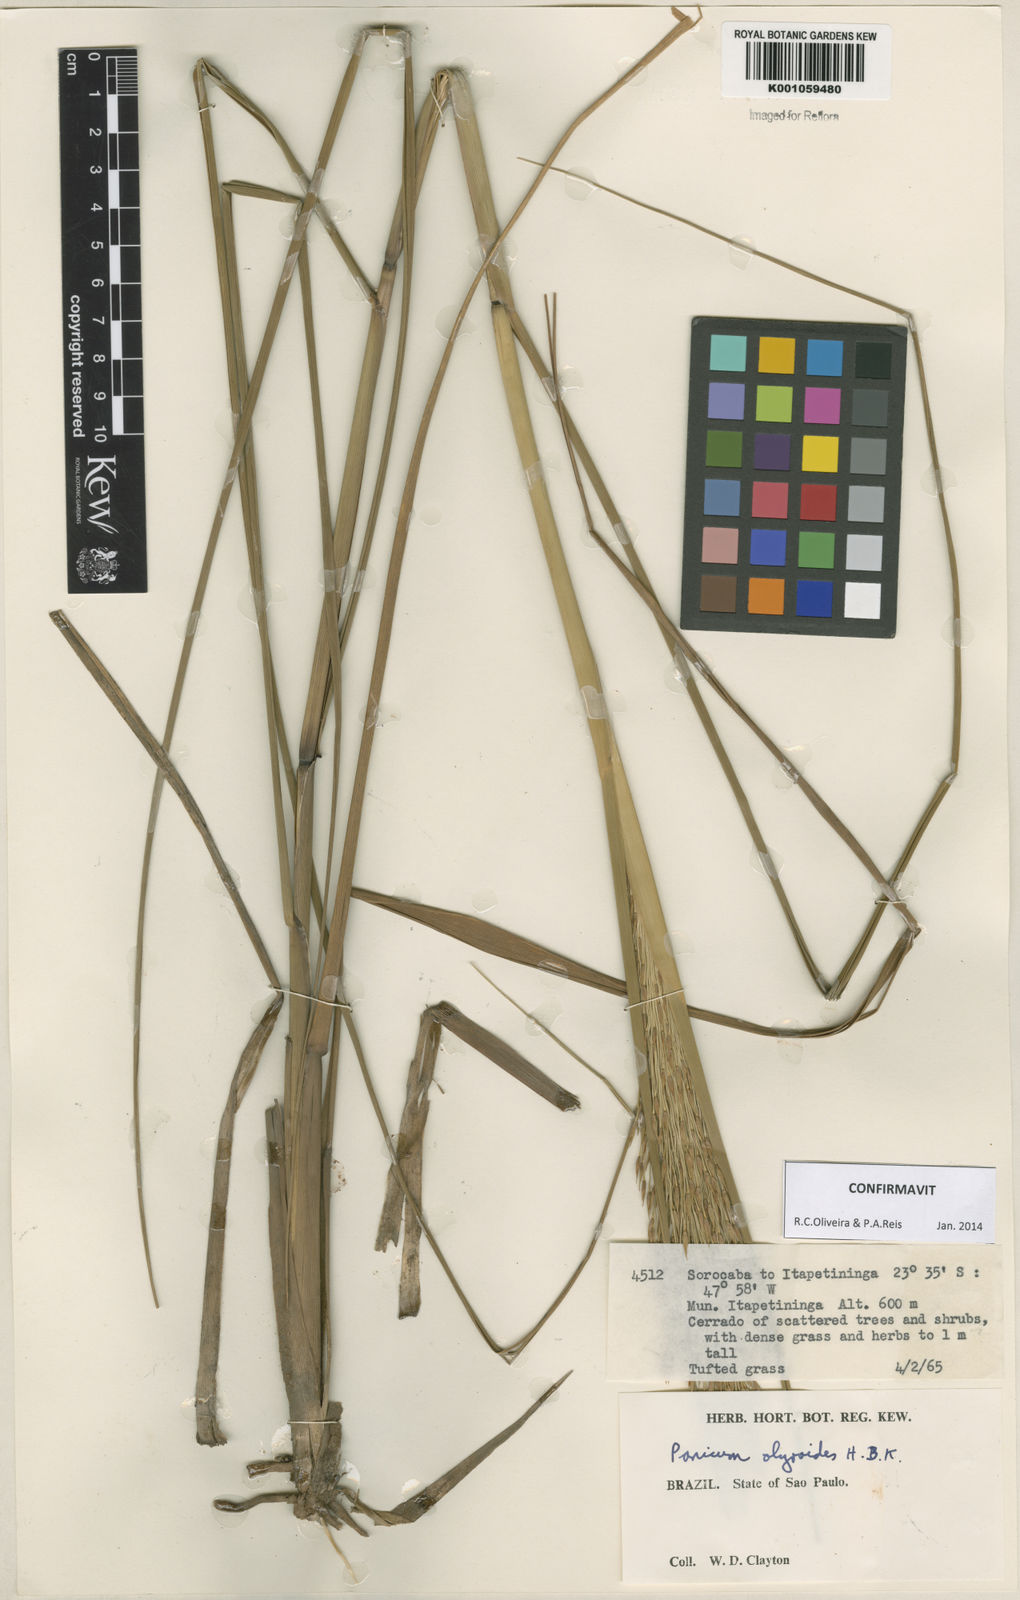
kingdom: Plantae
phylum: Tracheophyta
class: Liliopsida
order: Poales
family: Poaceae
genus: Panicum
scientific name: Panicum olyroides
